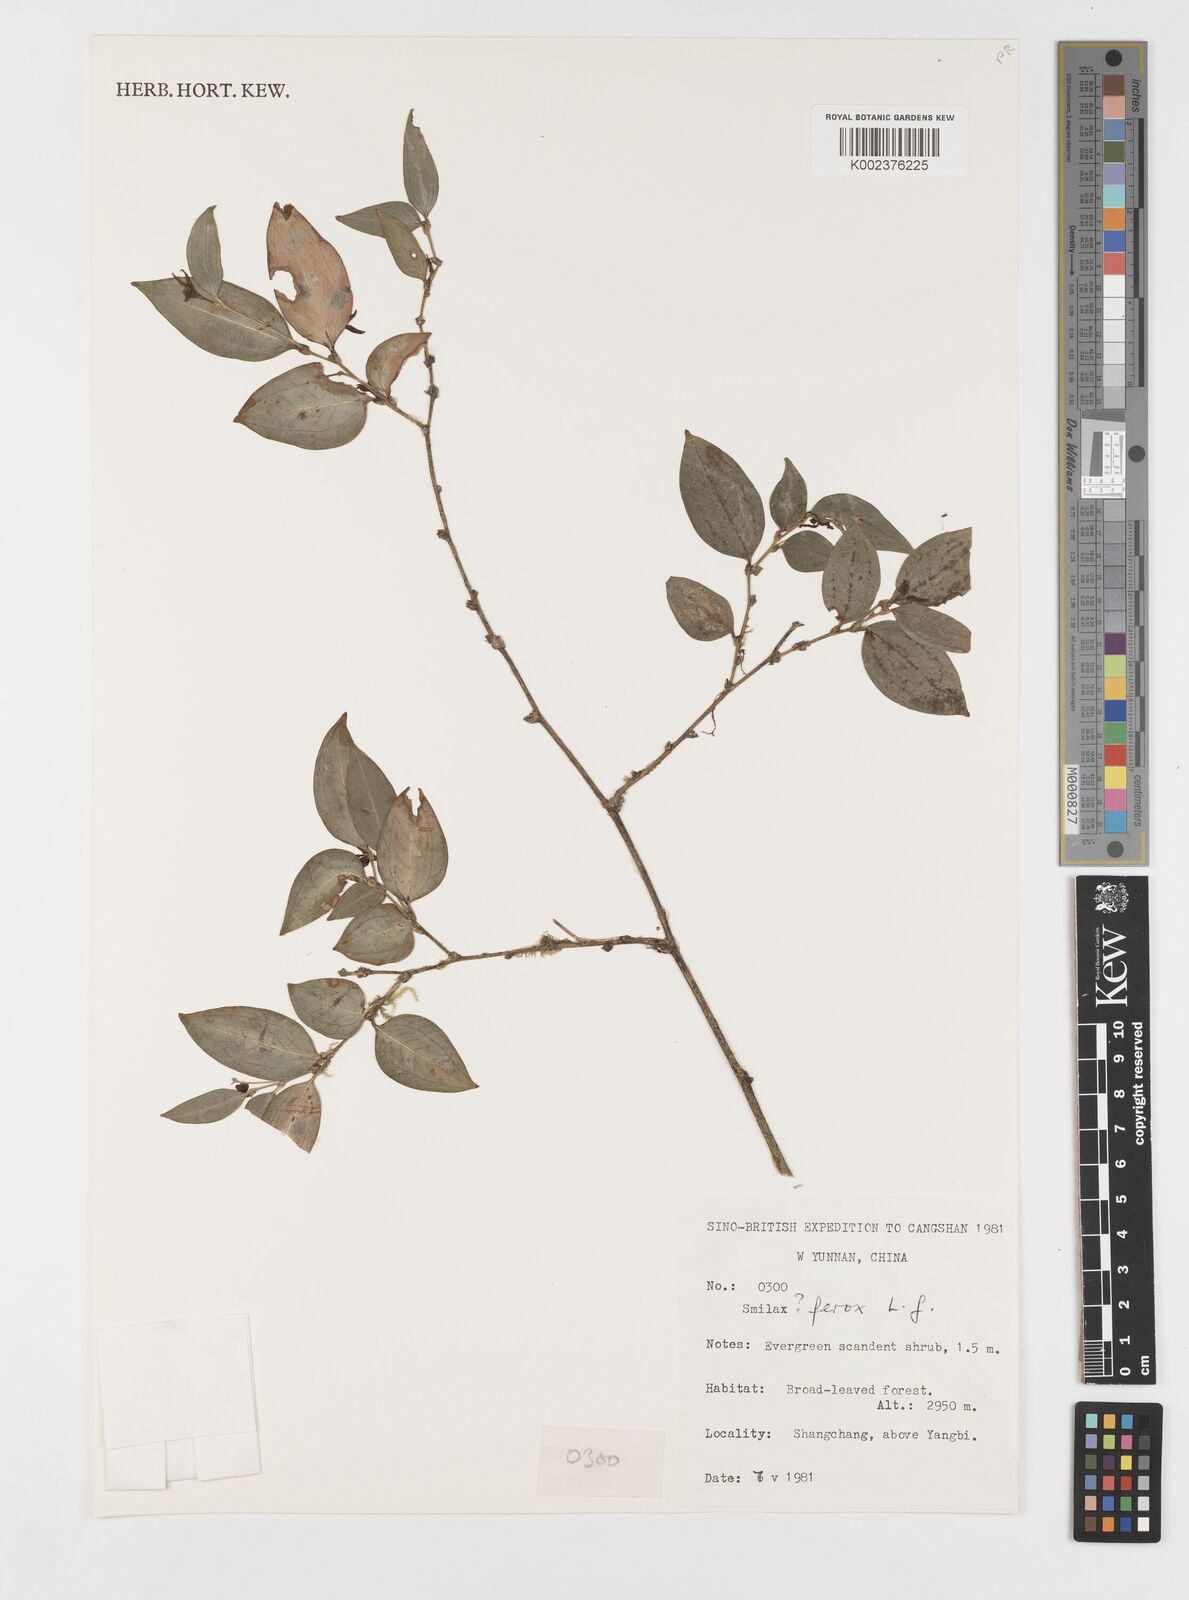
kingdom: Plantae
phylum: Tracheophyta
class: Liliopsida
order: Liliales
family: Smilacaceae
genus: Smilax
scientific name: Smilax ferox
